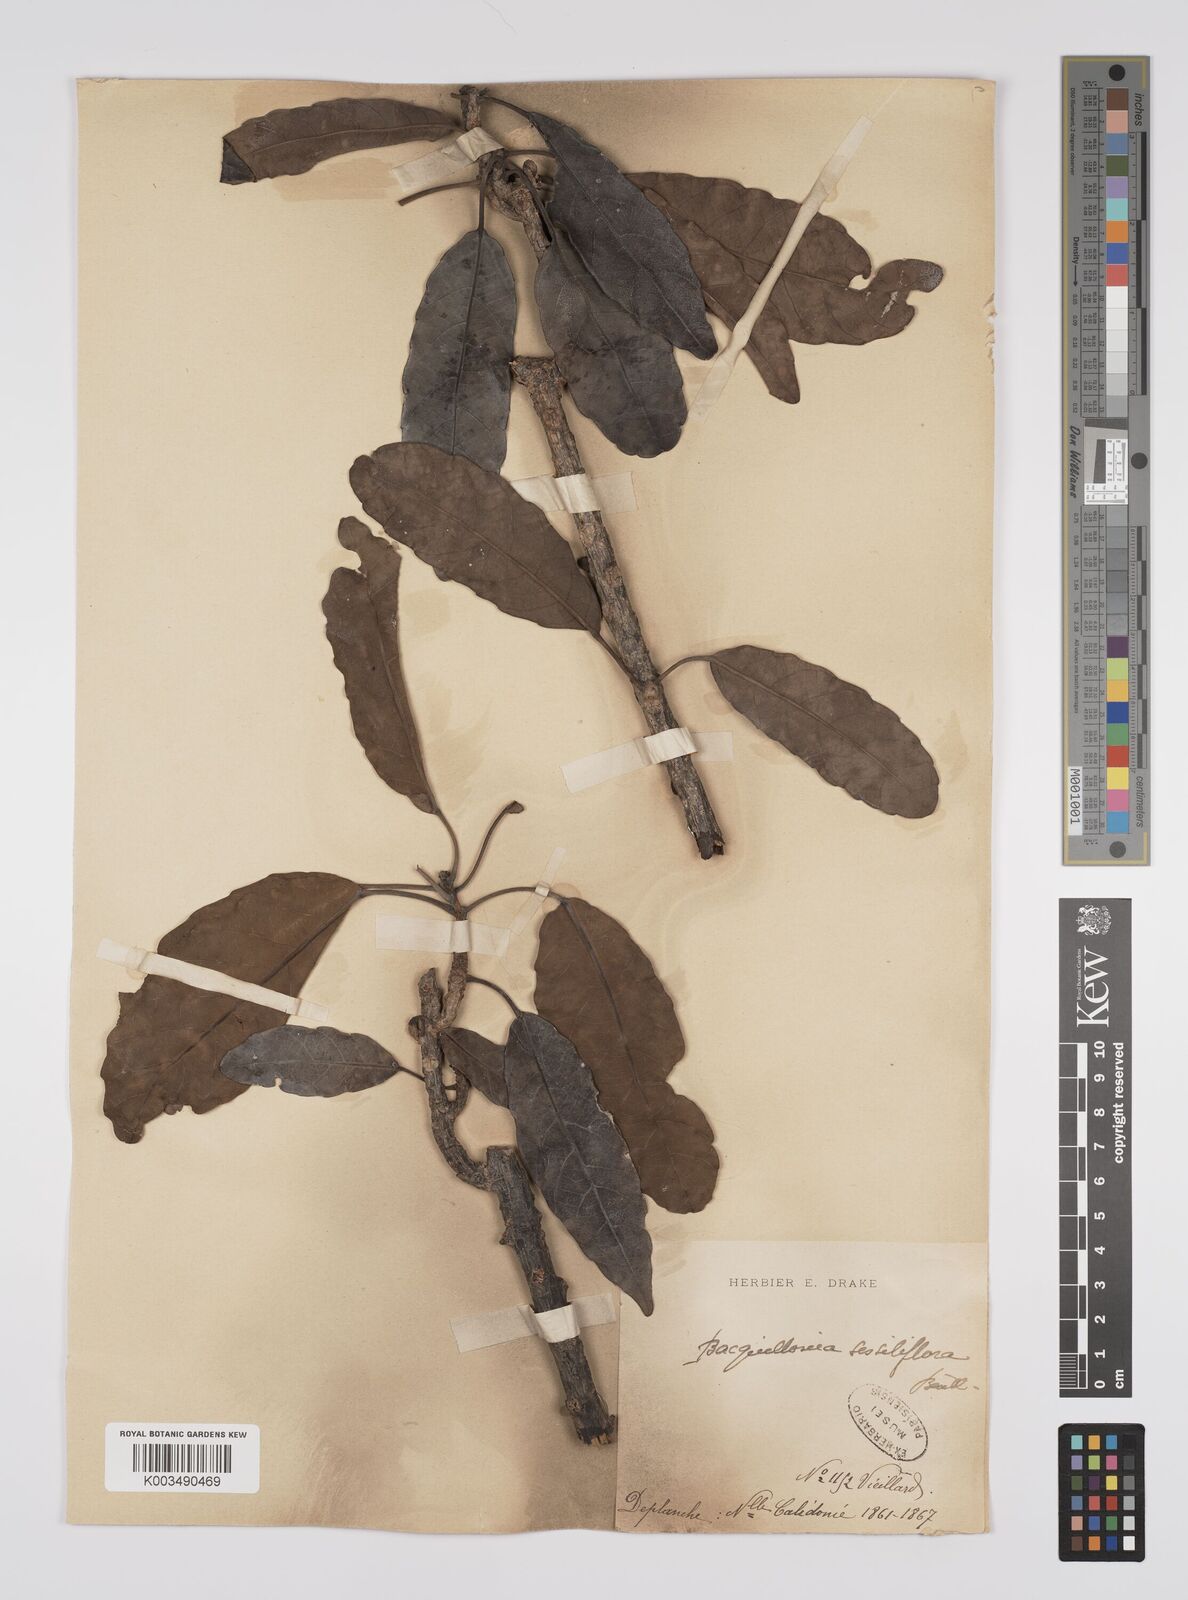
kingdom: Plantae
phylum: Tracheophyta
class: Magnoliopsida
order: Malpighiales
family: Euphorbiaceae
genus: Bocquillonia
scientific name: Bocquillonia sessiliflora
